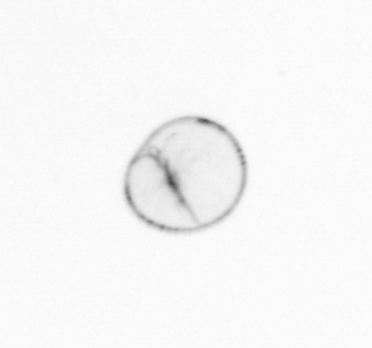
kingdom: Chromista
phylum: Myzozoa
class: Dinophyceae
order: Noctilucales
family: Noctilucaceae
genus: Noctiluca
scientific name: Noctiluca scintillans
